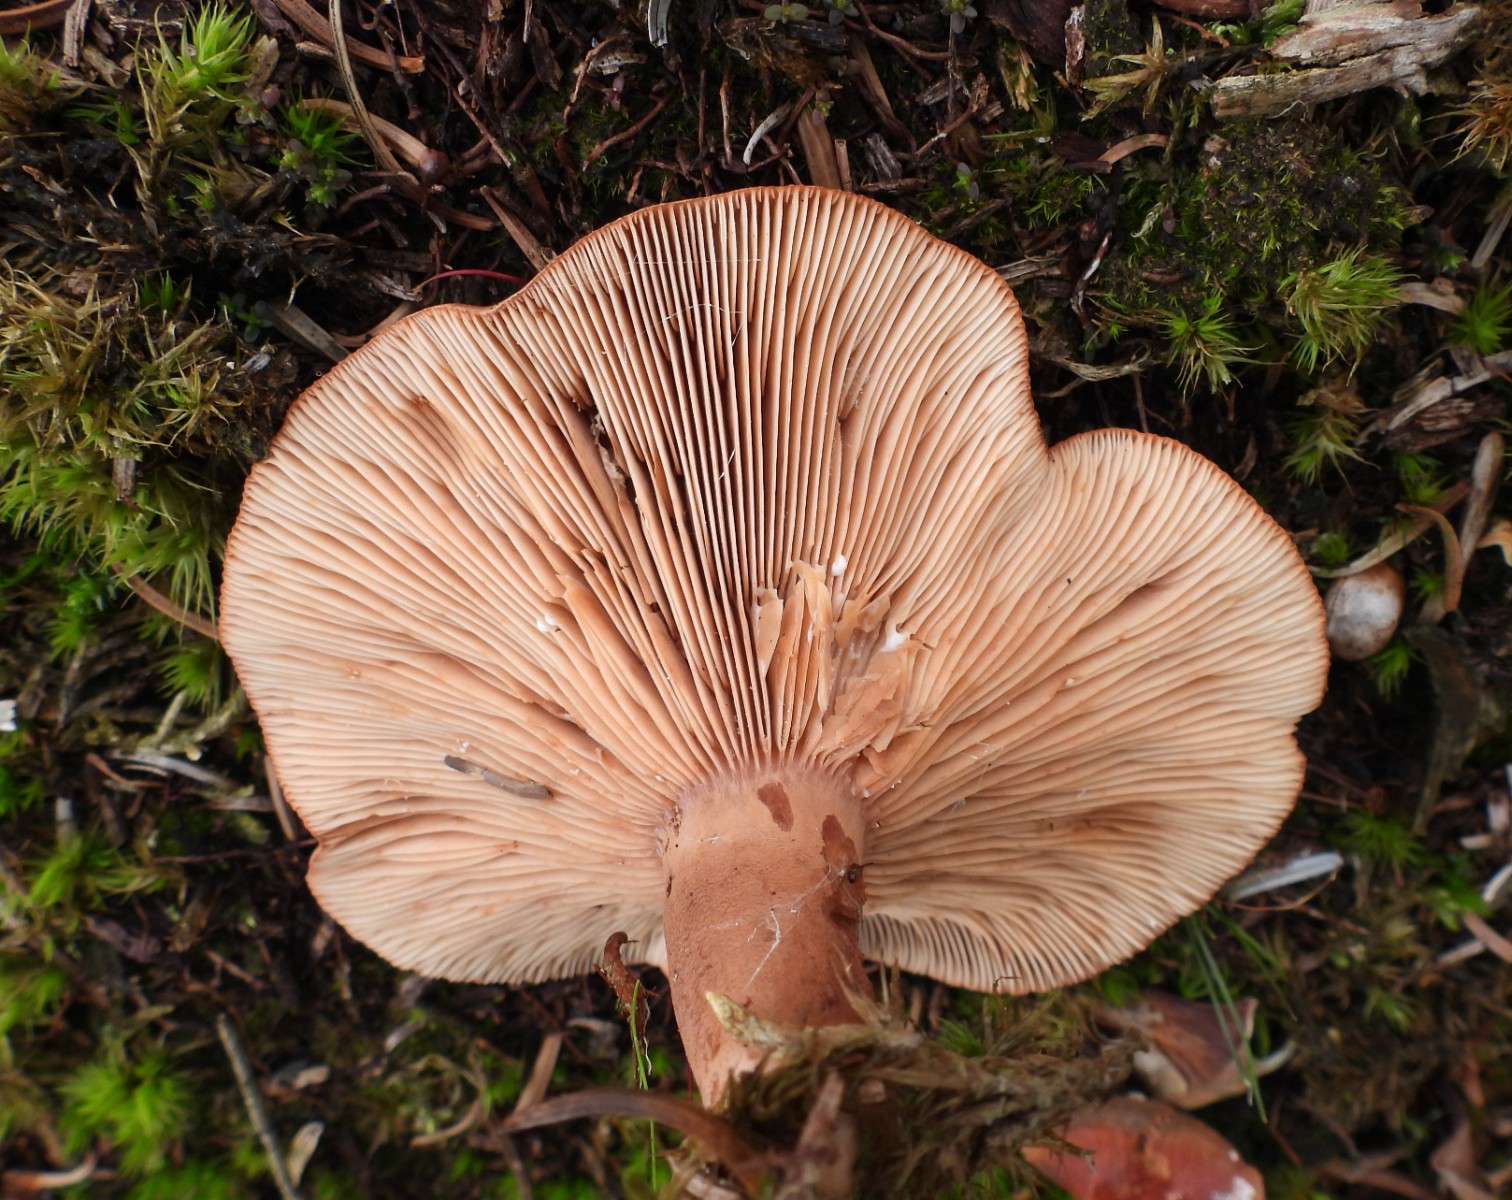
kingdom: Fungi
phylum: Basidiomycota
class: Agaricomycetes
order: Russulales
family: Russulaceae
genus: Lactarius
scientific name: Lactarius rufus
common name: rødbrun mælkehat
